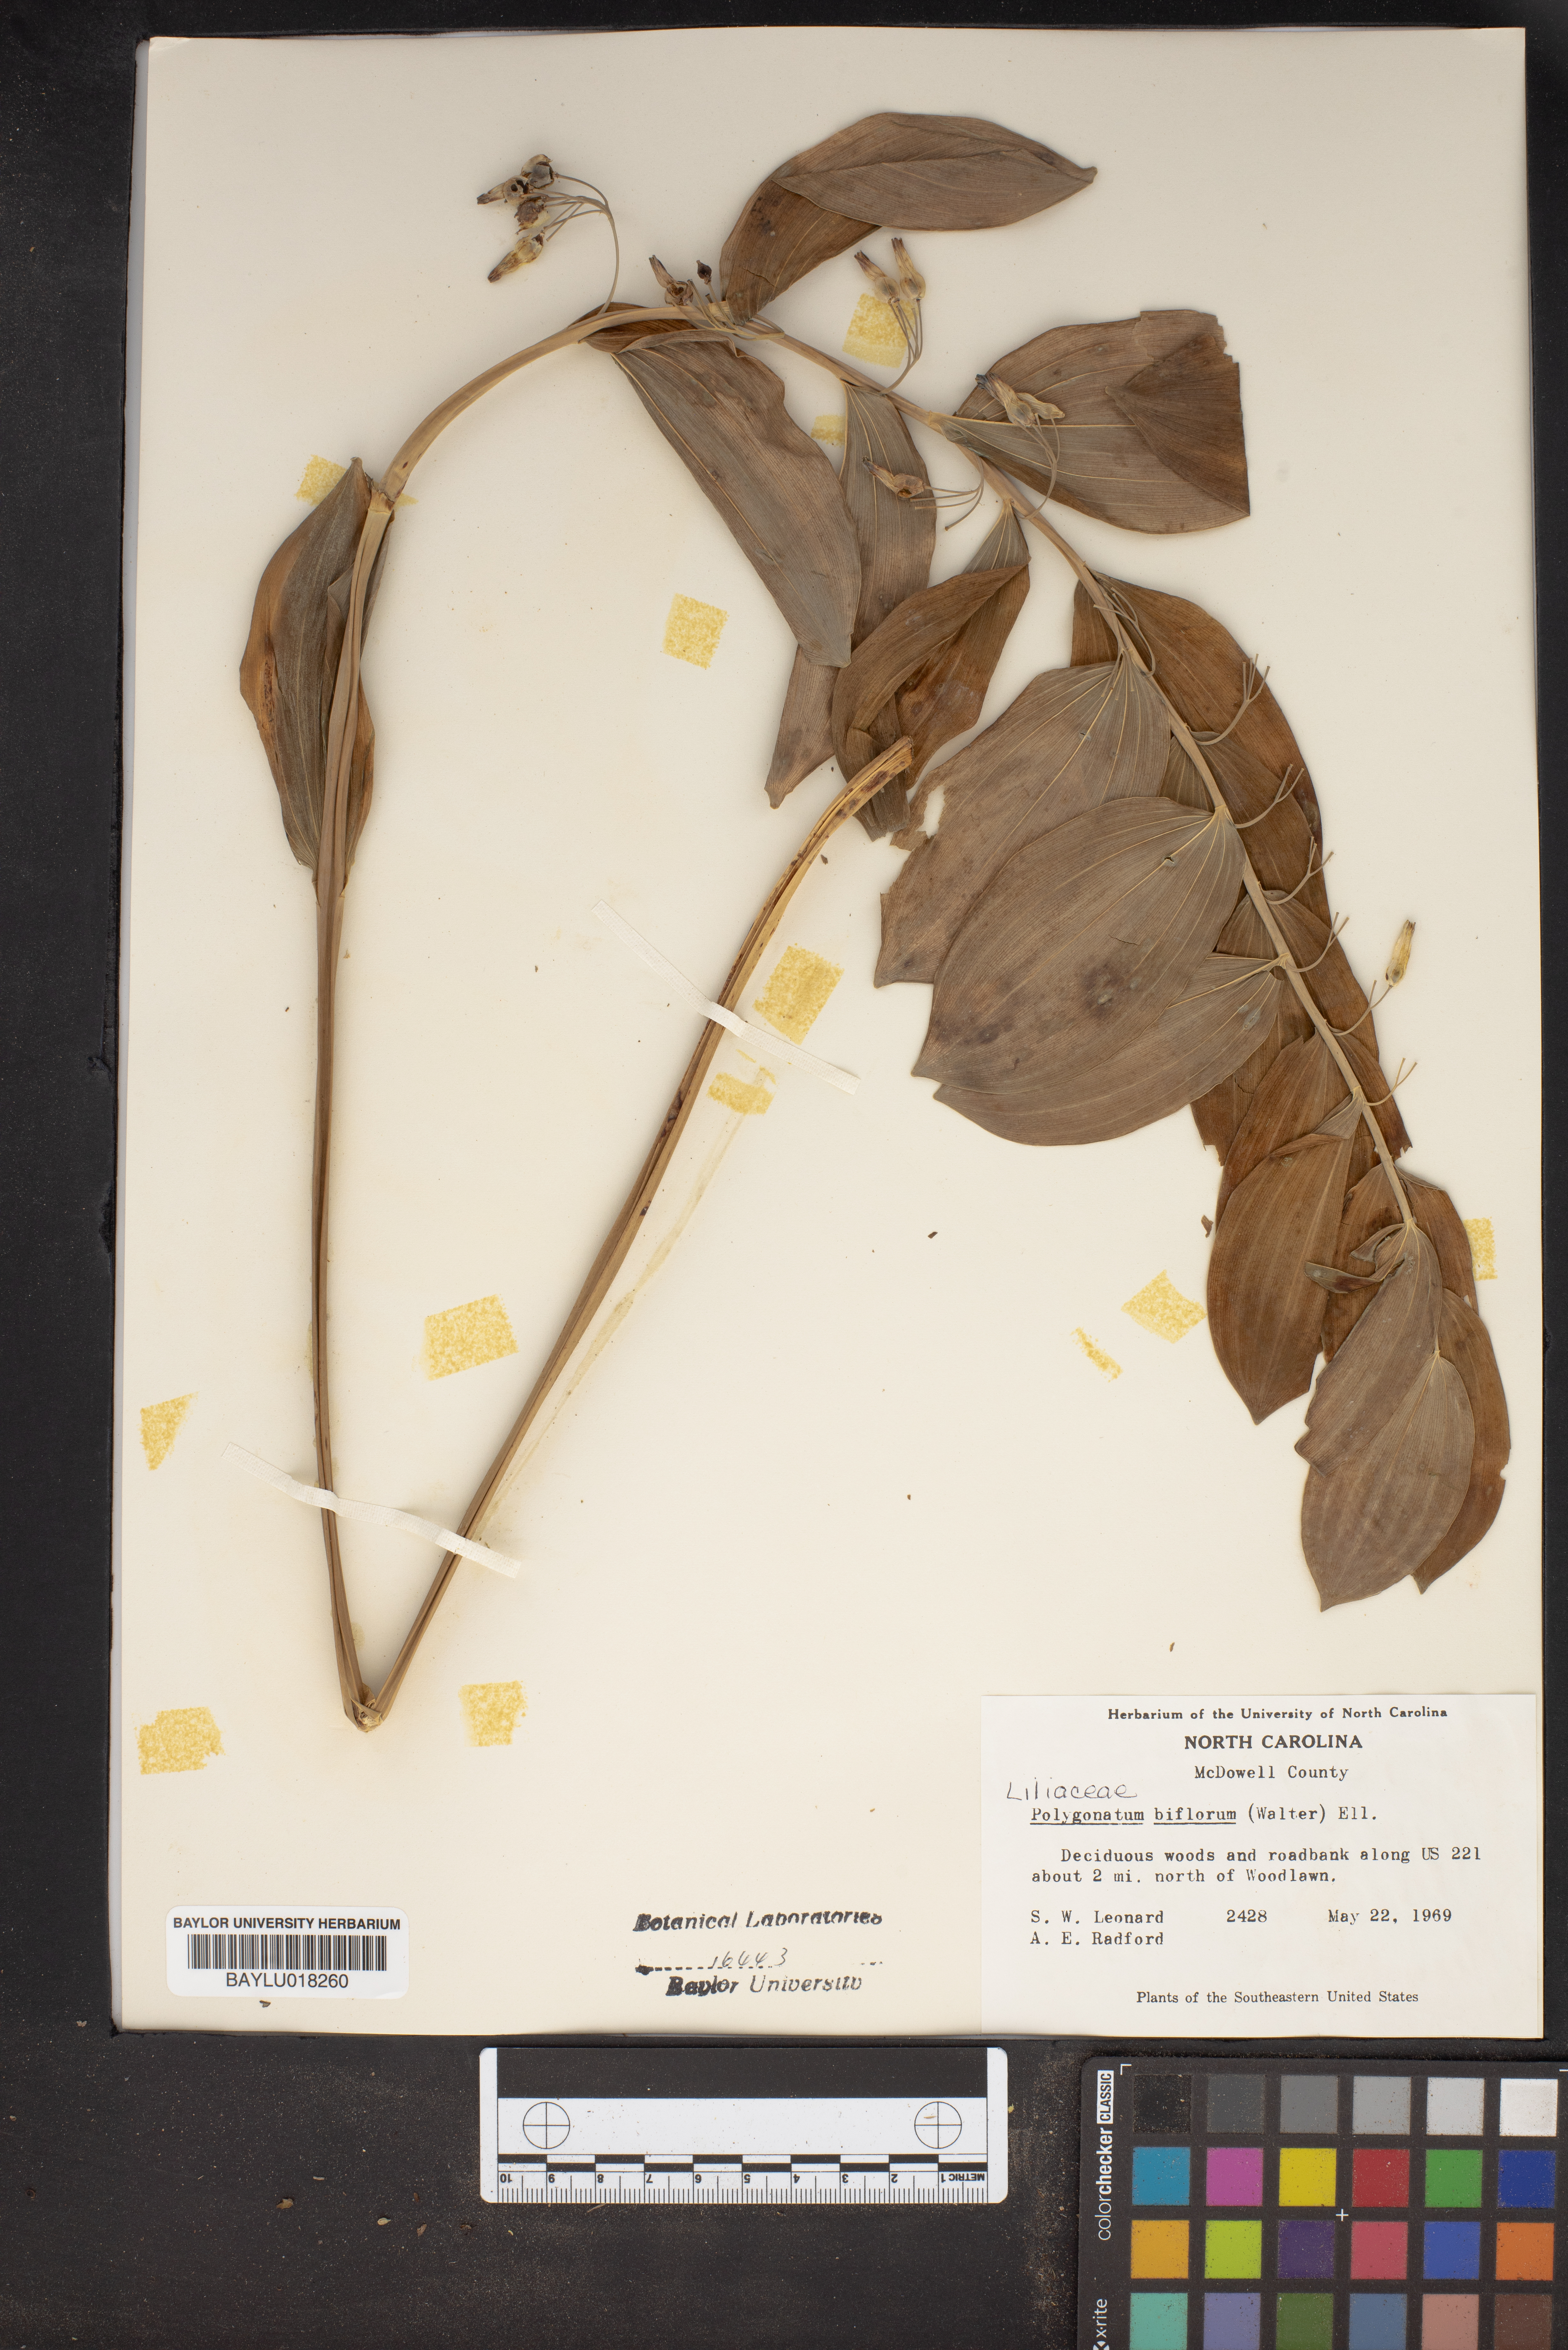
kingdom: Plantae
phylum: Tracheophyta
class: Liliopsida
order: Asparagales
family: Asparagaceae
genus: Polygonatum
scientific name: Polygonatum biflorum
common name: American solomon's-seal
